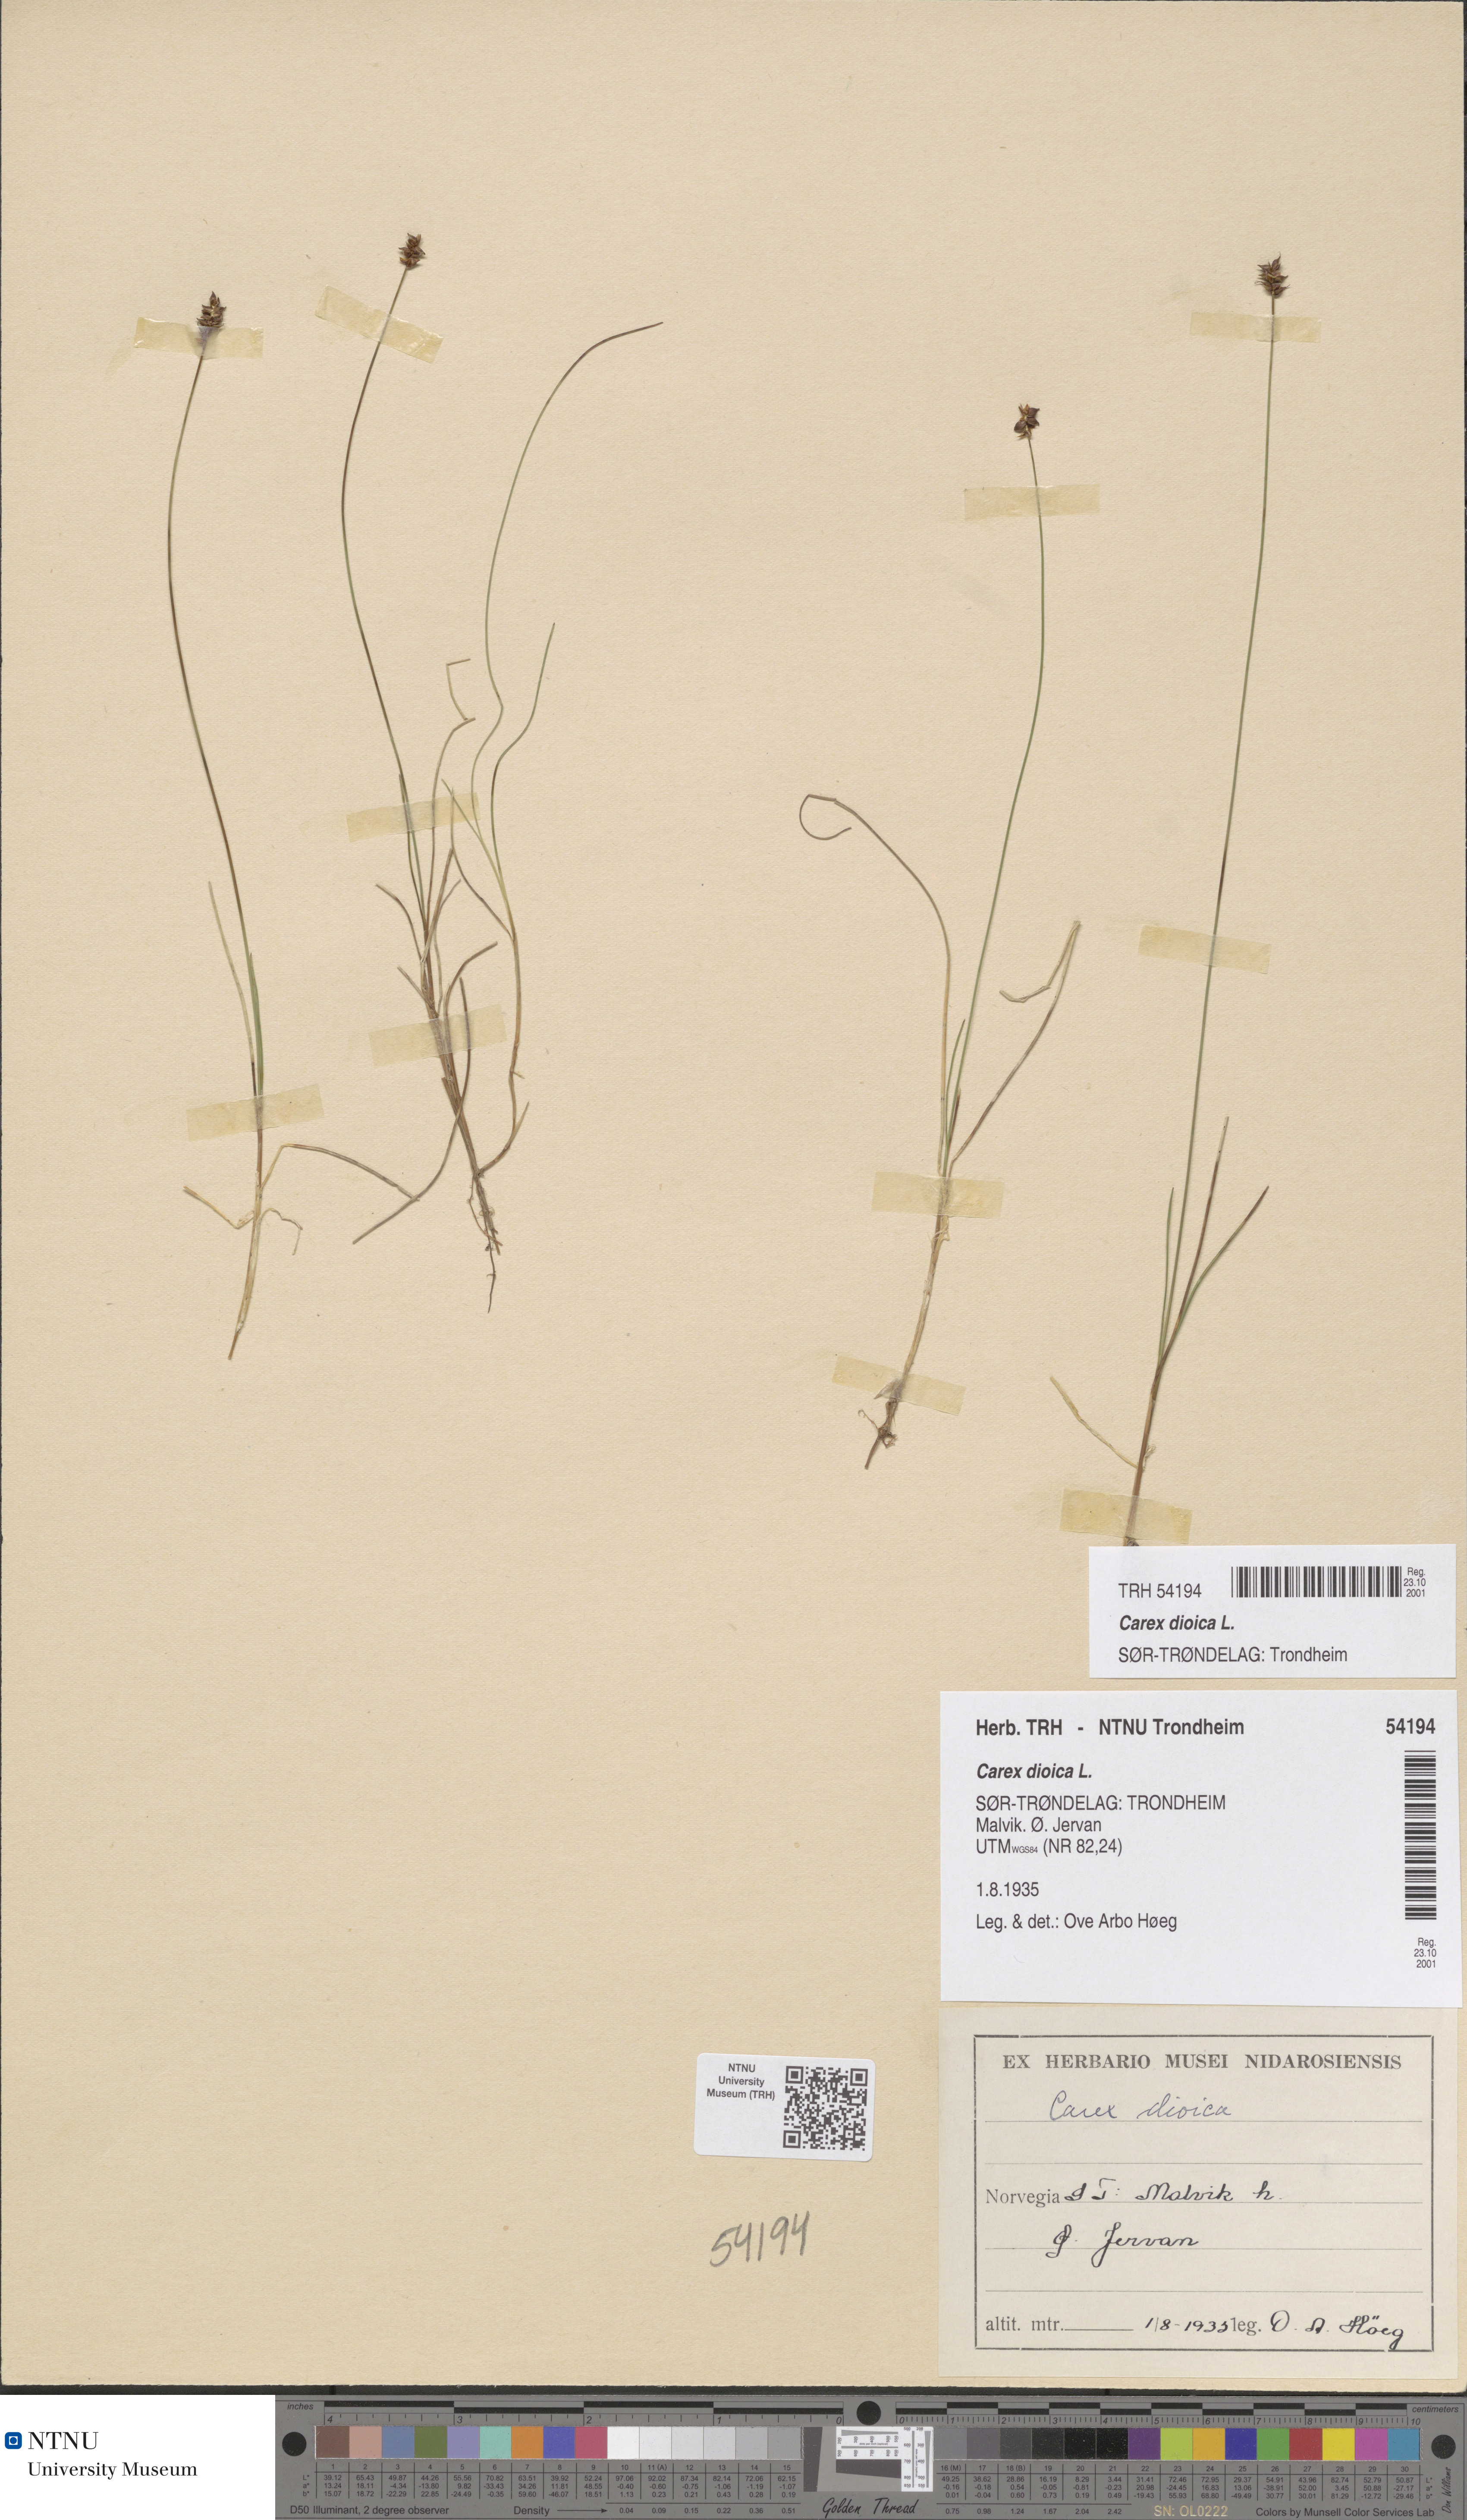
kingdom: Plantae
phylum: Tracheophyta
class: Liliopsida
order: Poales
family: Cyperaceae
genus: Carex
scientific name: Carex dioica
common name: Dioecious sedge
